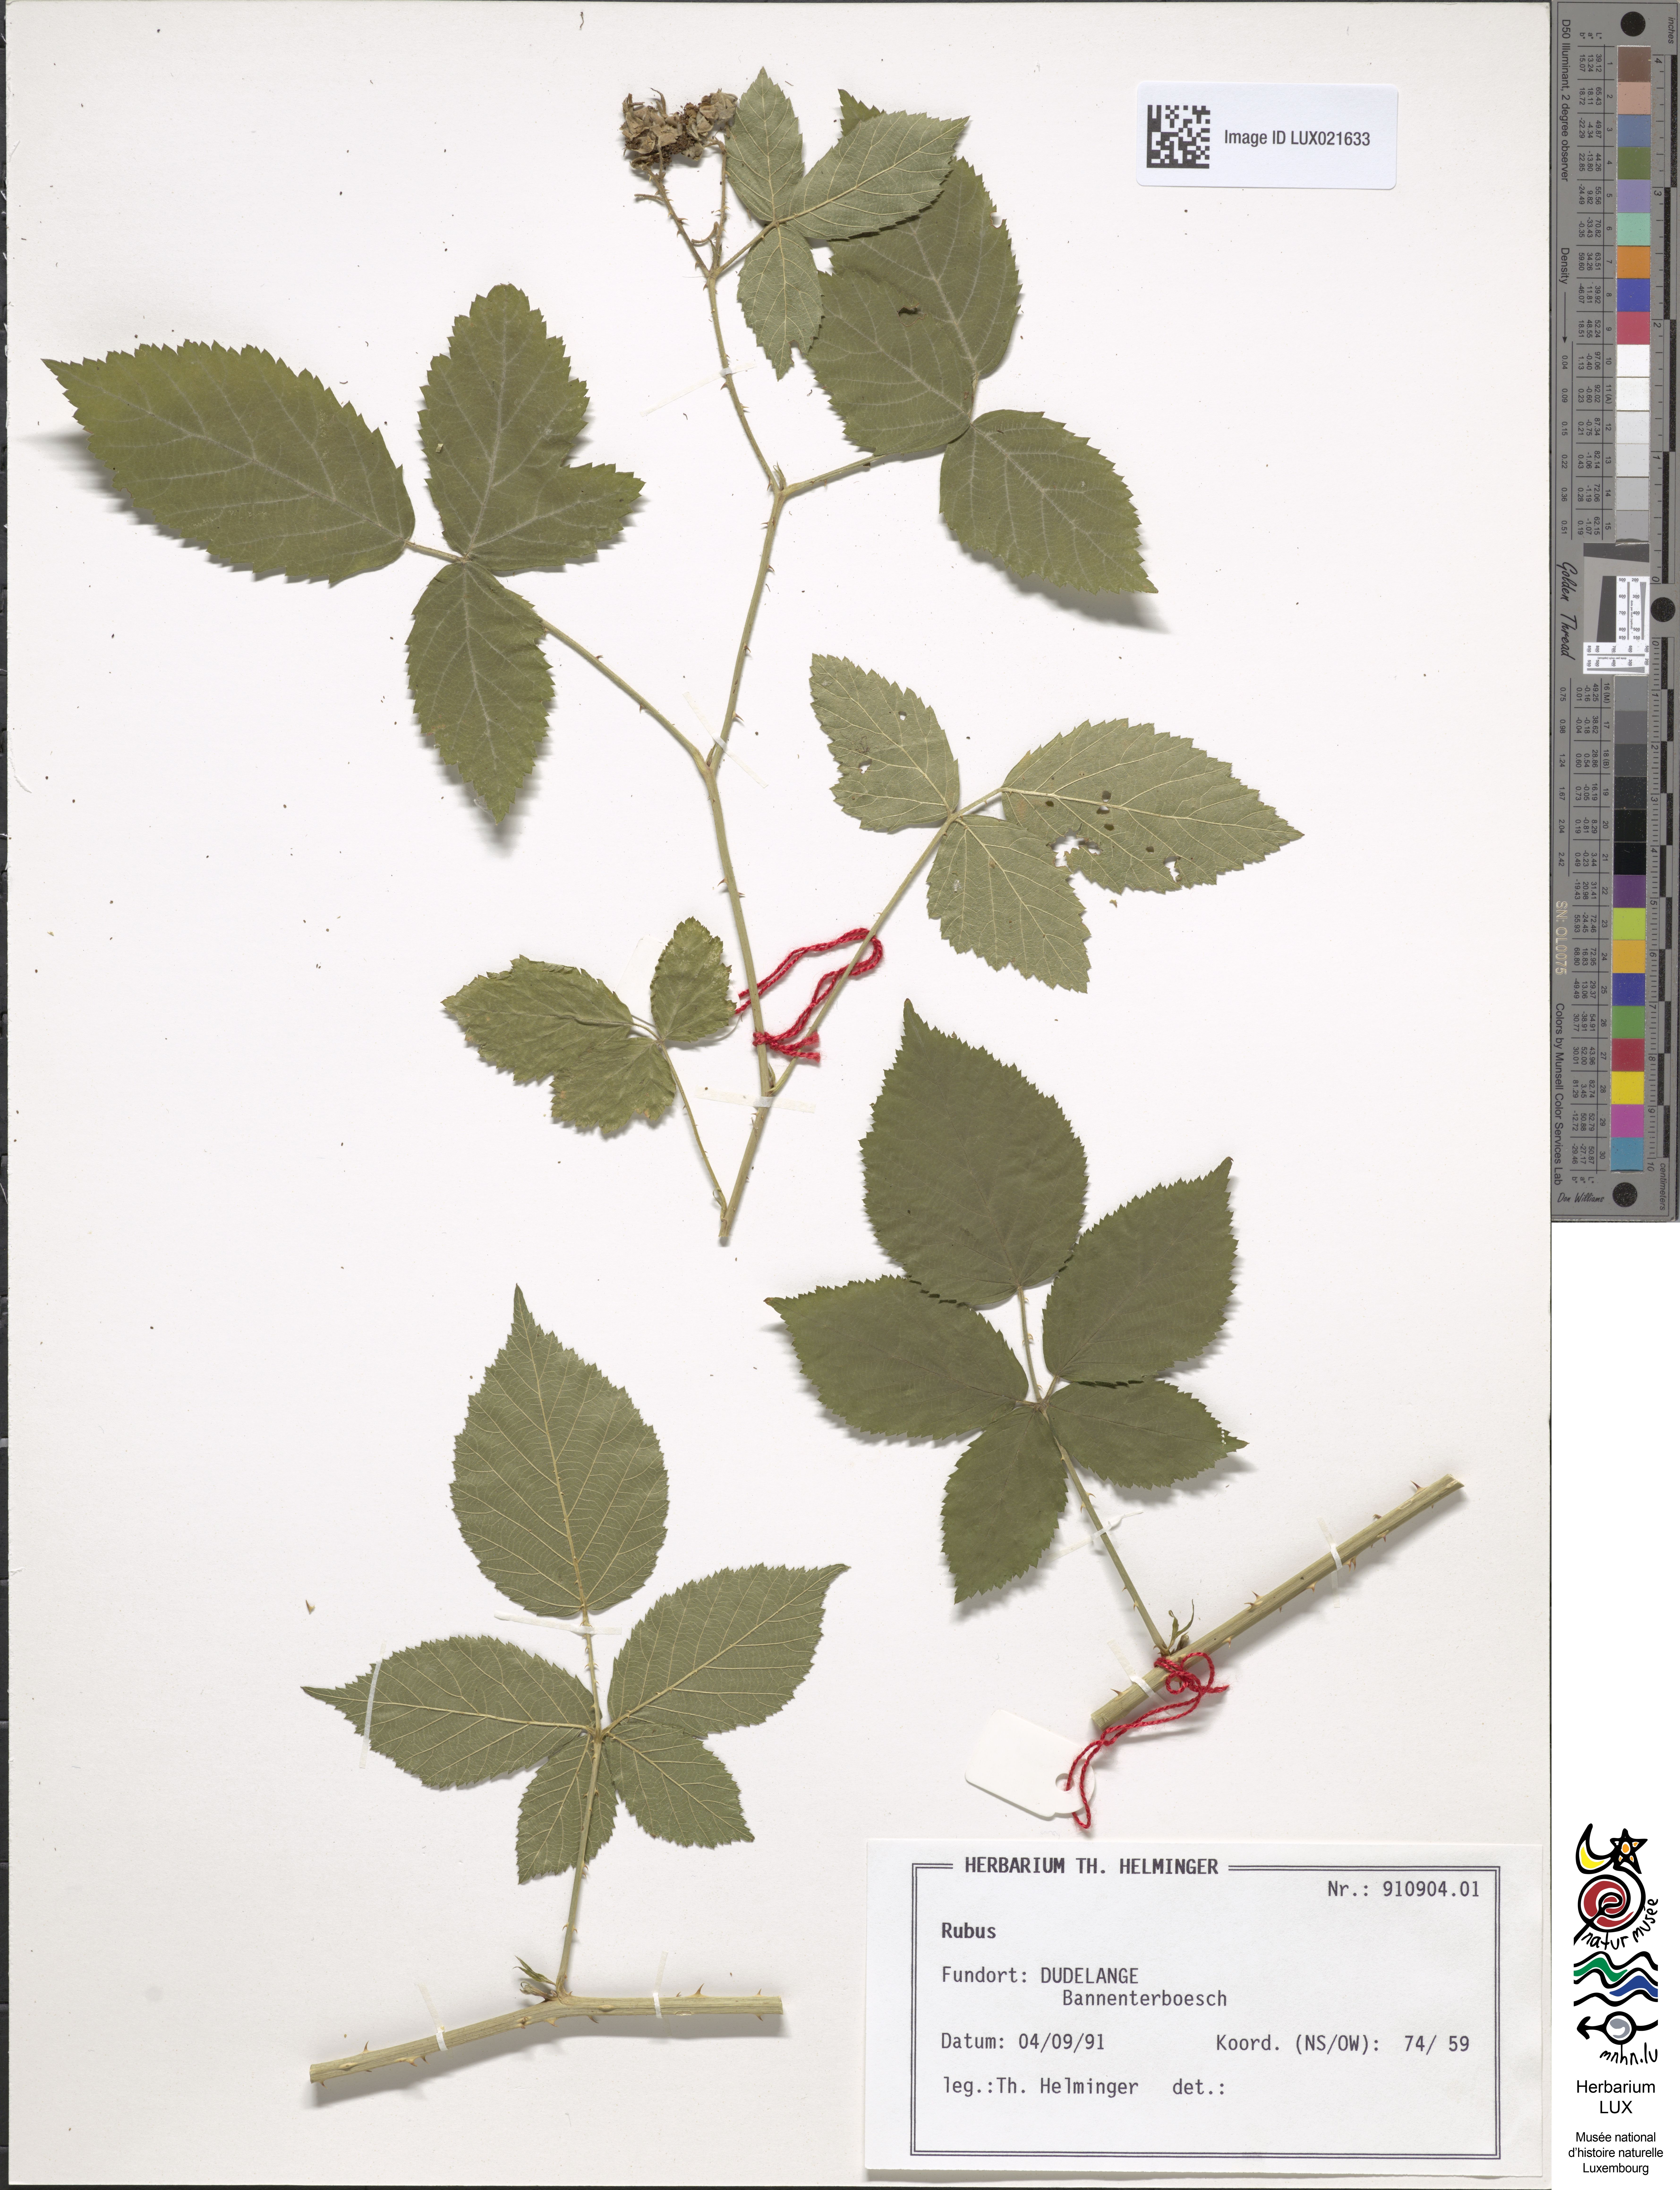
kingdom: Plantae
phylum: Tracheophyta
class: Magnoliopsida
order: Rosales
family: Rosaceae
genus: Rubus
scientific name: Rubus
